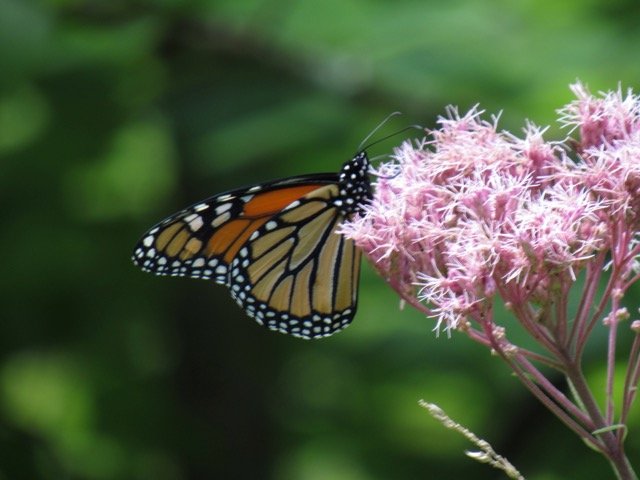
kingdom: Animalia
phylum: Arthropoda
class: Insecta
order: Lepidoptera
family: Nymphalidae
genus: Danaus
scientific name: Danaus plexippus
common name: Monarch
